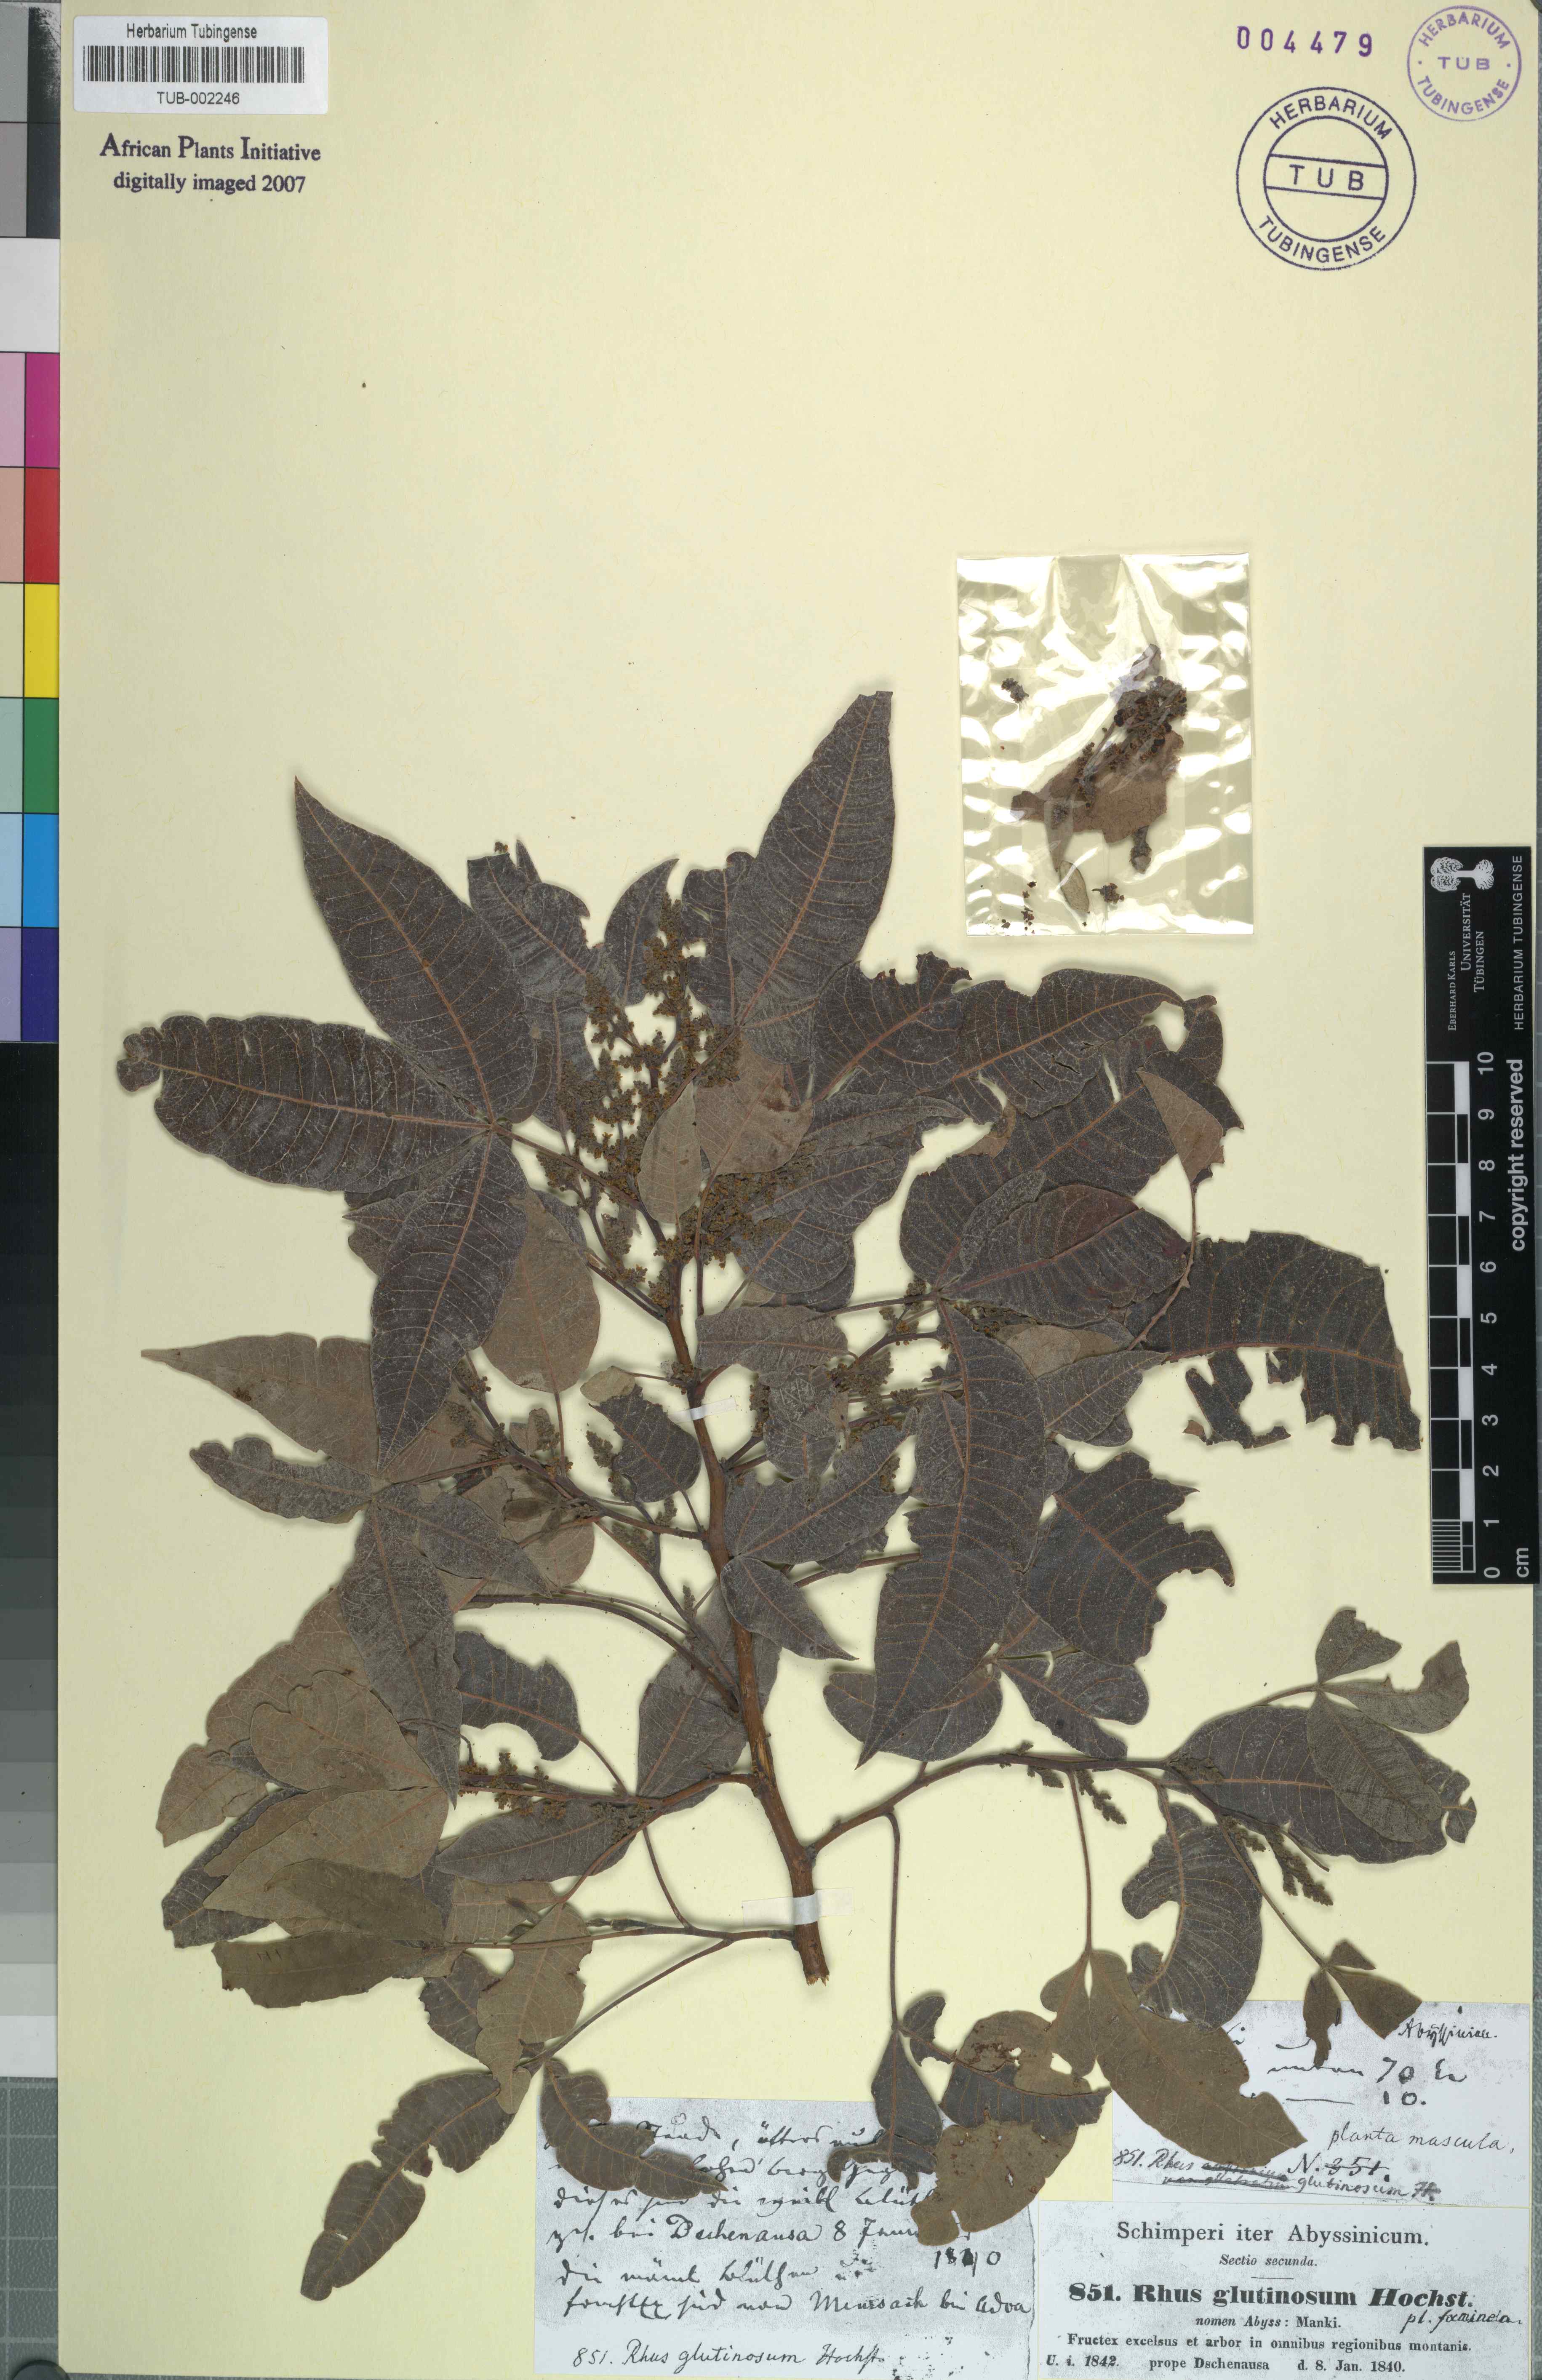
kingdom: Plantae
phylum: Tracheophyta
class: Magnoliopsida
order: Sapindales
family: Anacardiaceae
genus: Searsia
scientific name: Searsia glutinosa
